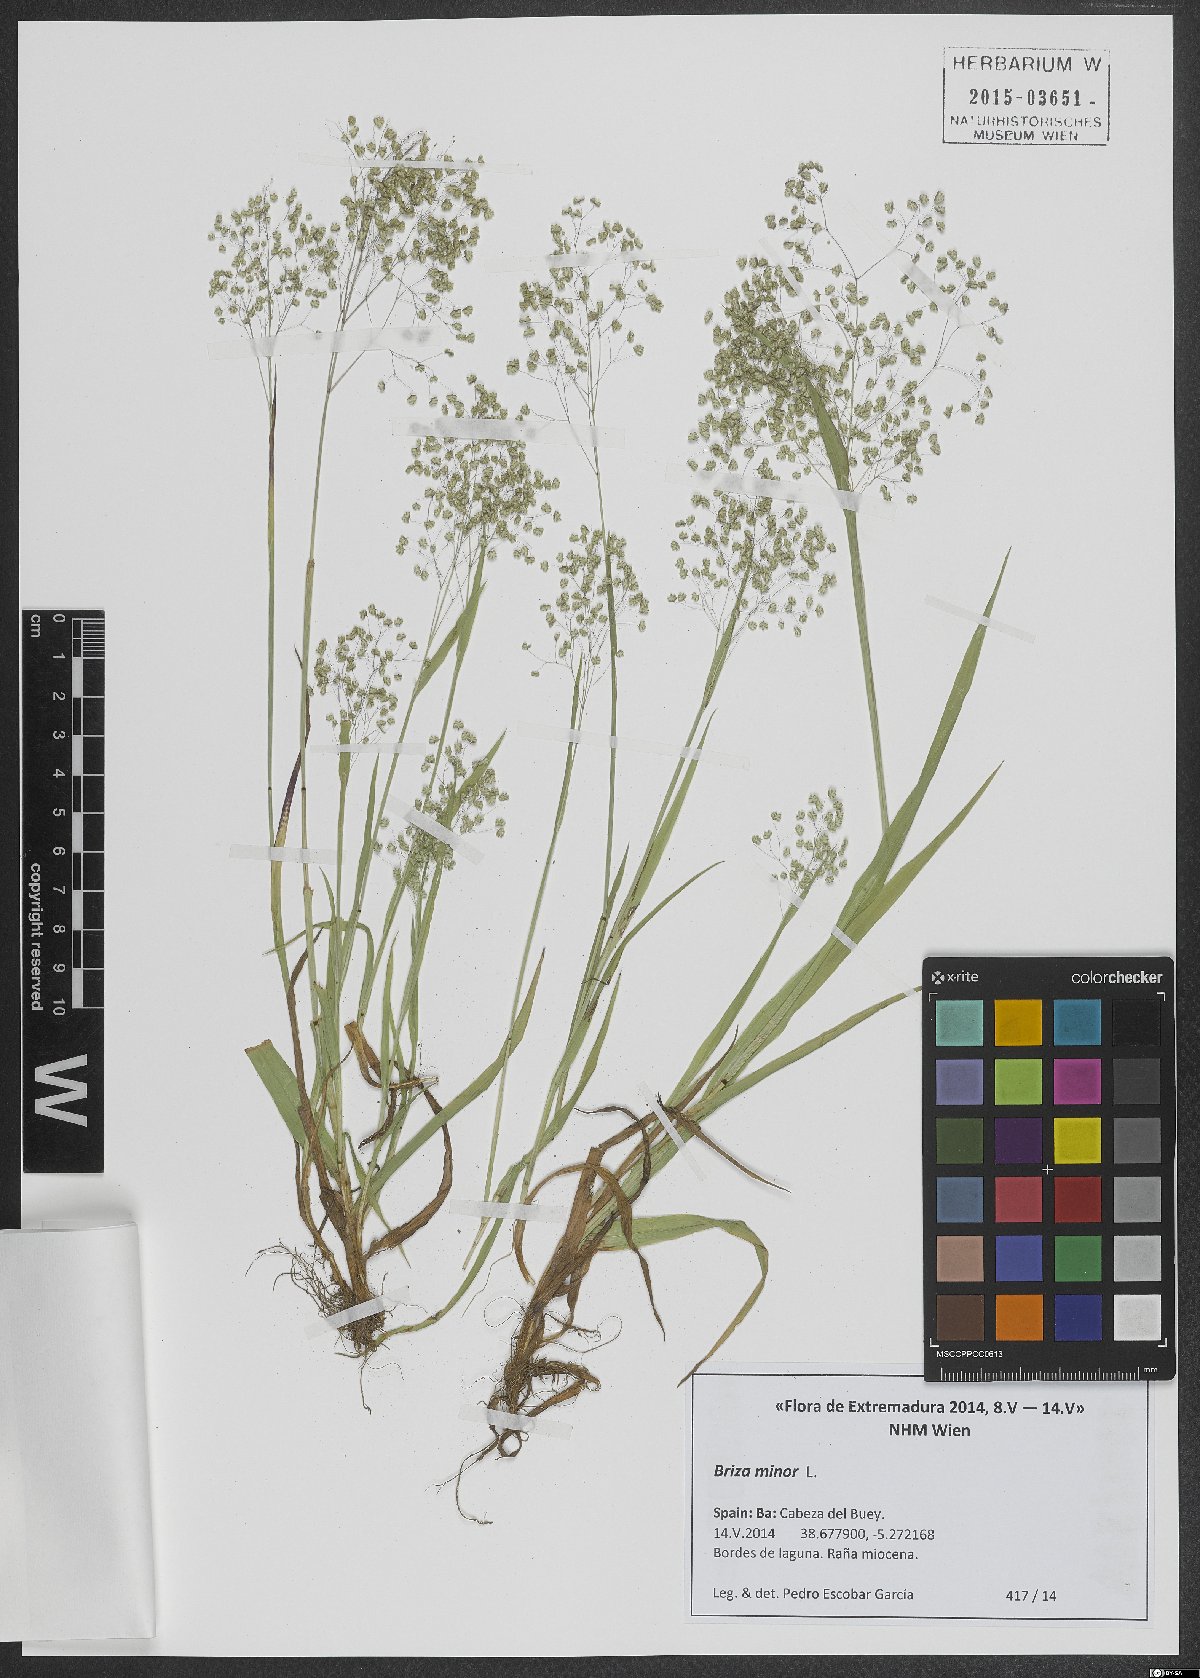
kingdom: Plantae
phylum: Tracheophyta
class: Liliopsida
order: Poales
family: Poaceae
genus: Briza
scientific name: Briza minor
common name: Lesser quaking-grass
